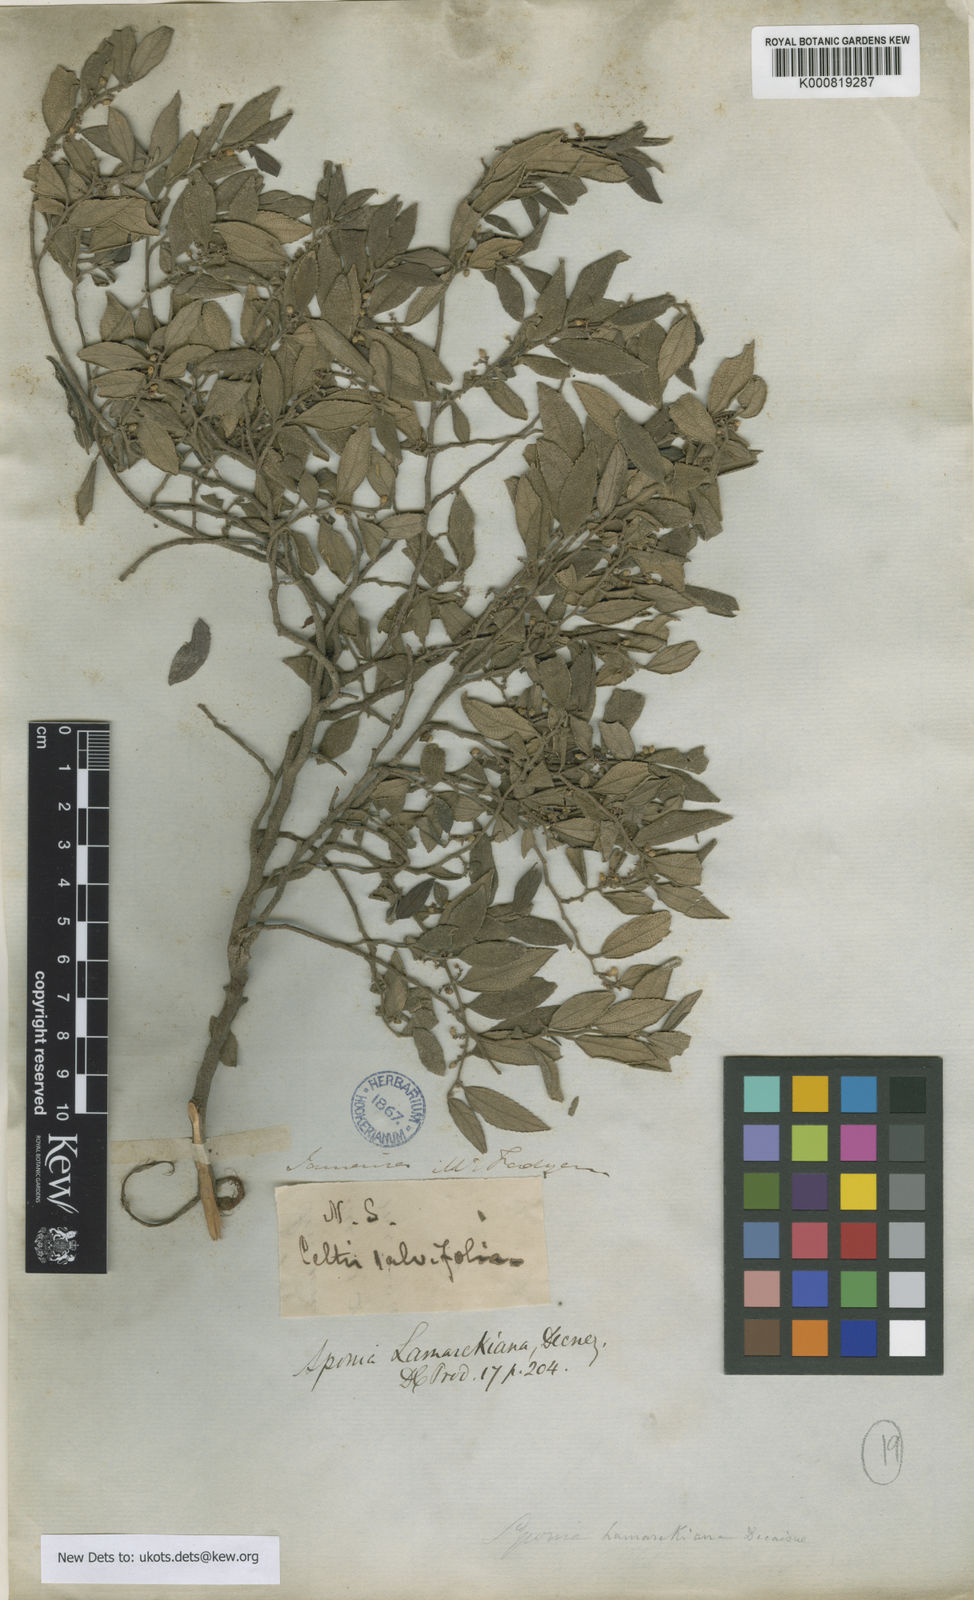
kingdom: Plantae
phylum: Tracheophyta
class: Magnoliopsida
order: Rosales
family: Cannabaceae
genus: Trema
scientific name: Trema lamarckianum
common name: Lamarck's trema
